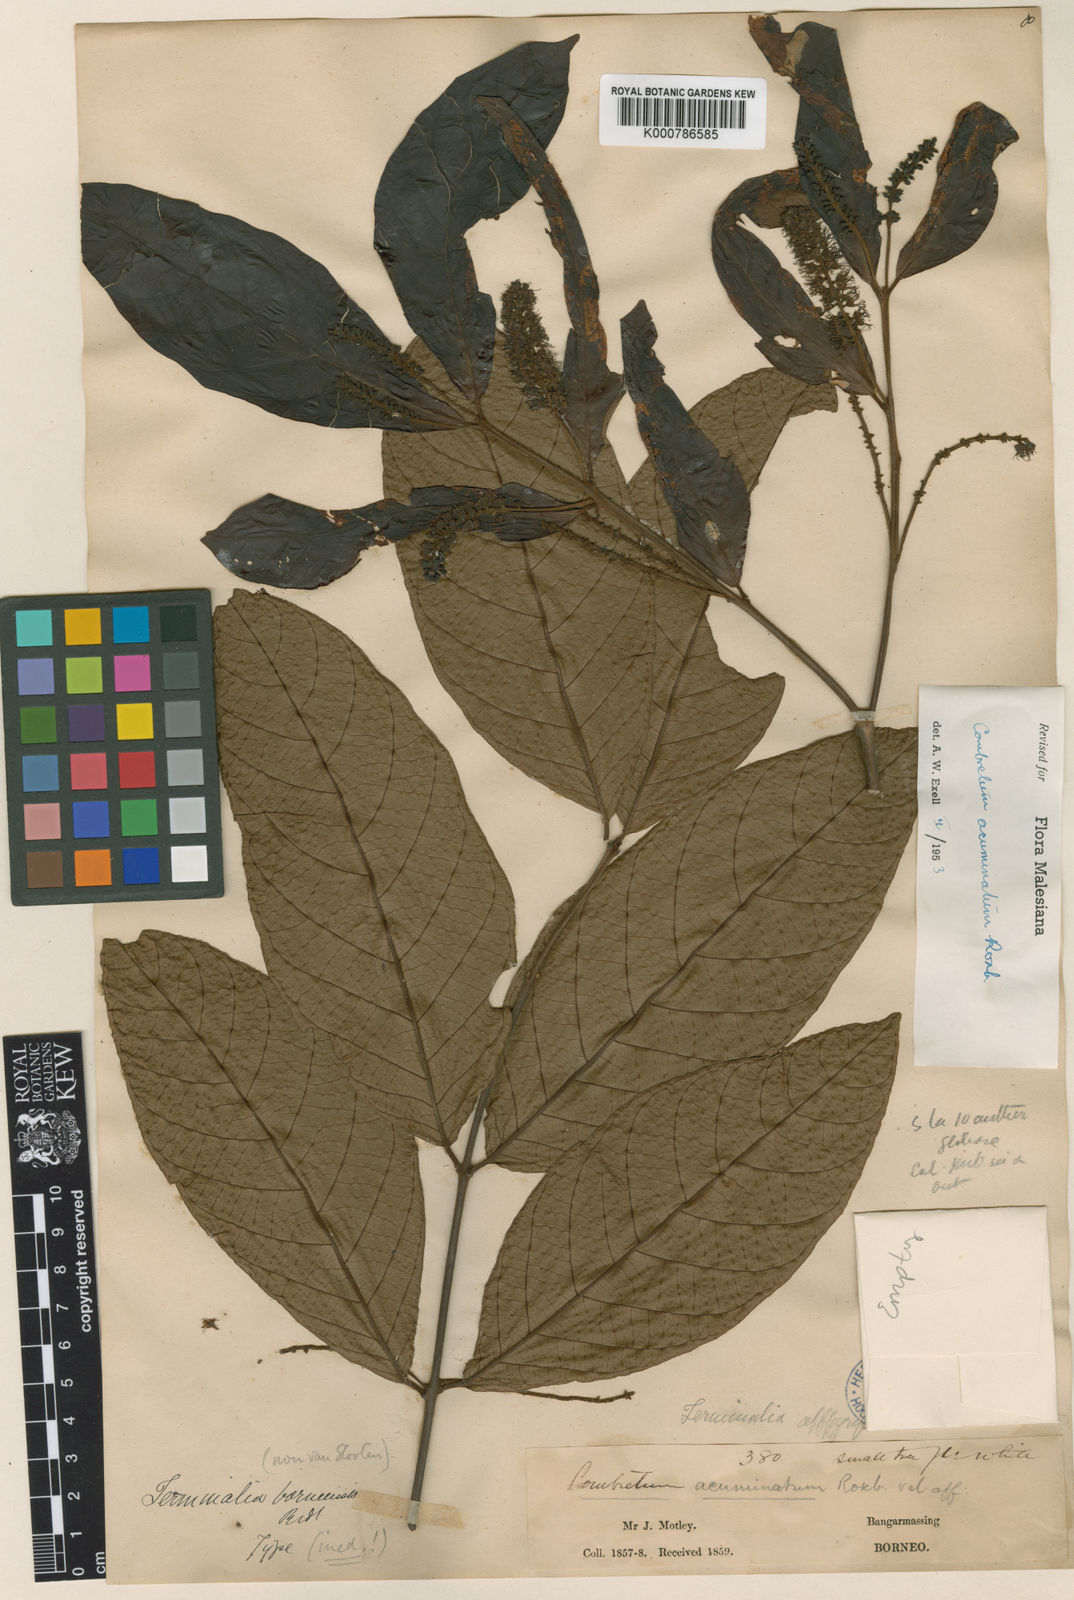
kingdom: Plantae
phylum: Tracheophyta
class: Magnoliopsida
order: Myrtales
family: Combretaceae
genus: Combretum
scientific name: Combretum acuminatum
